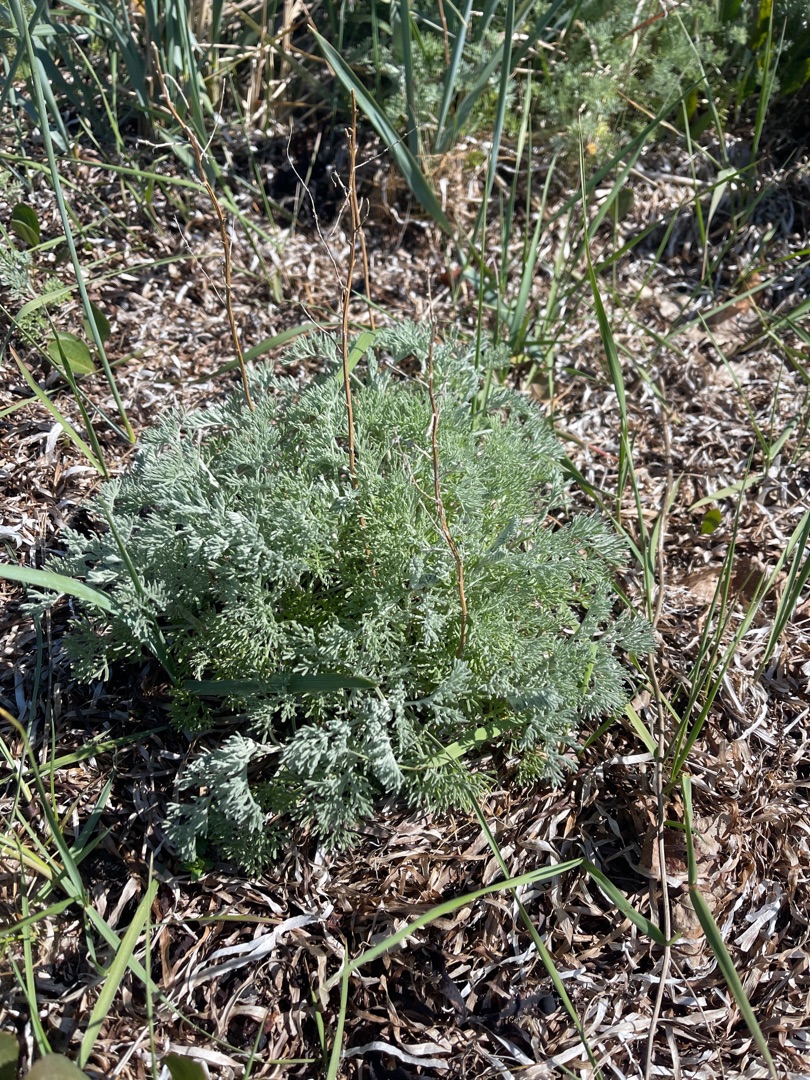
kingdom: Plantae
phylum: Tracheophyta
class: Magnoliopsida
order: Asterales
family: Asteraceae
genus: Artemisia
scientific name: Artemisia maritima
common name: Strandmalurt
